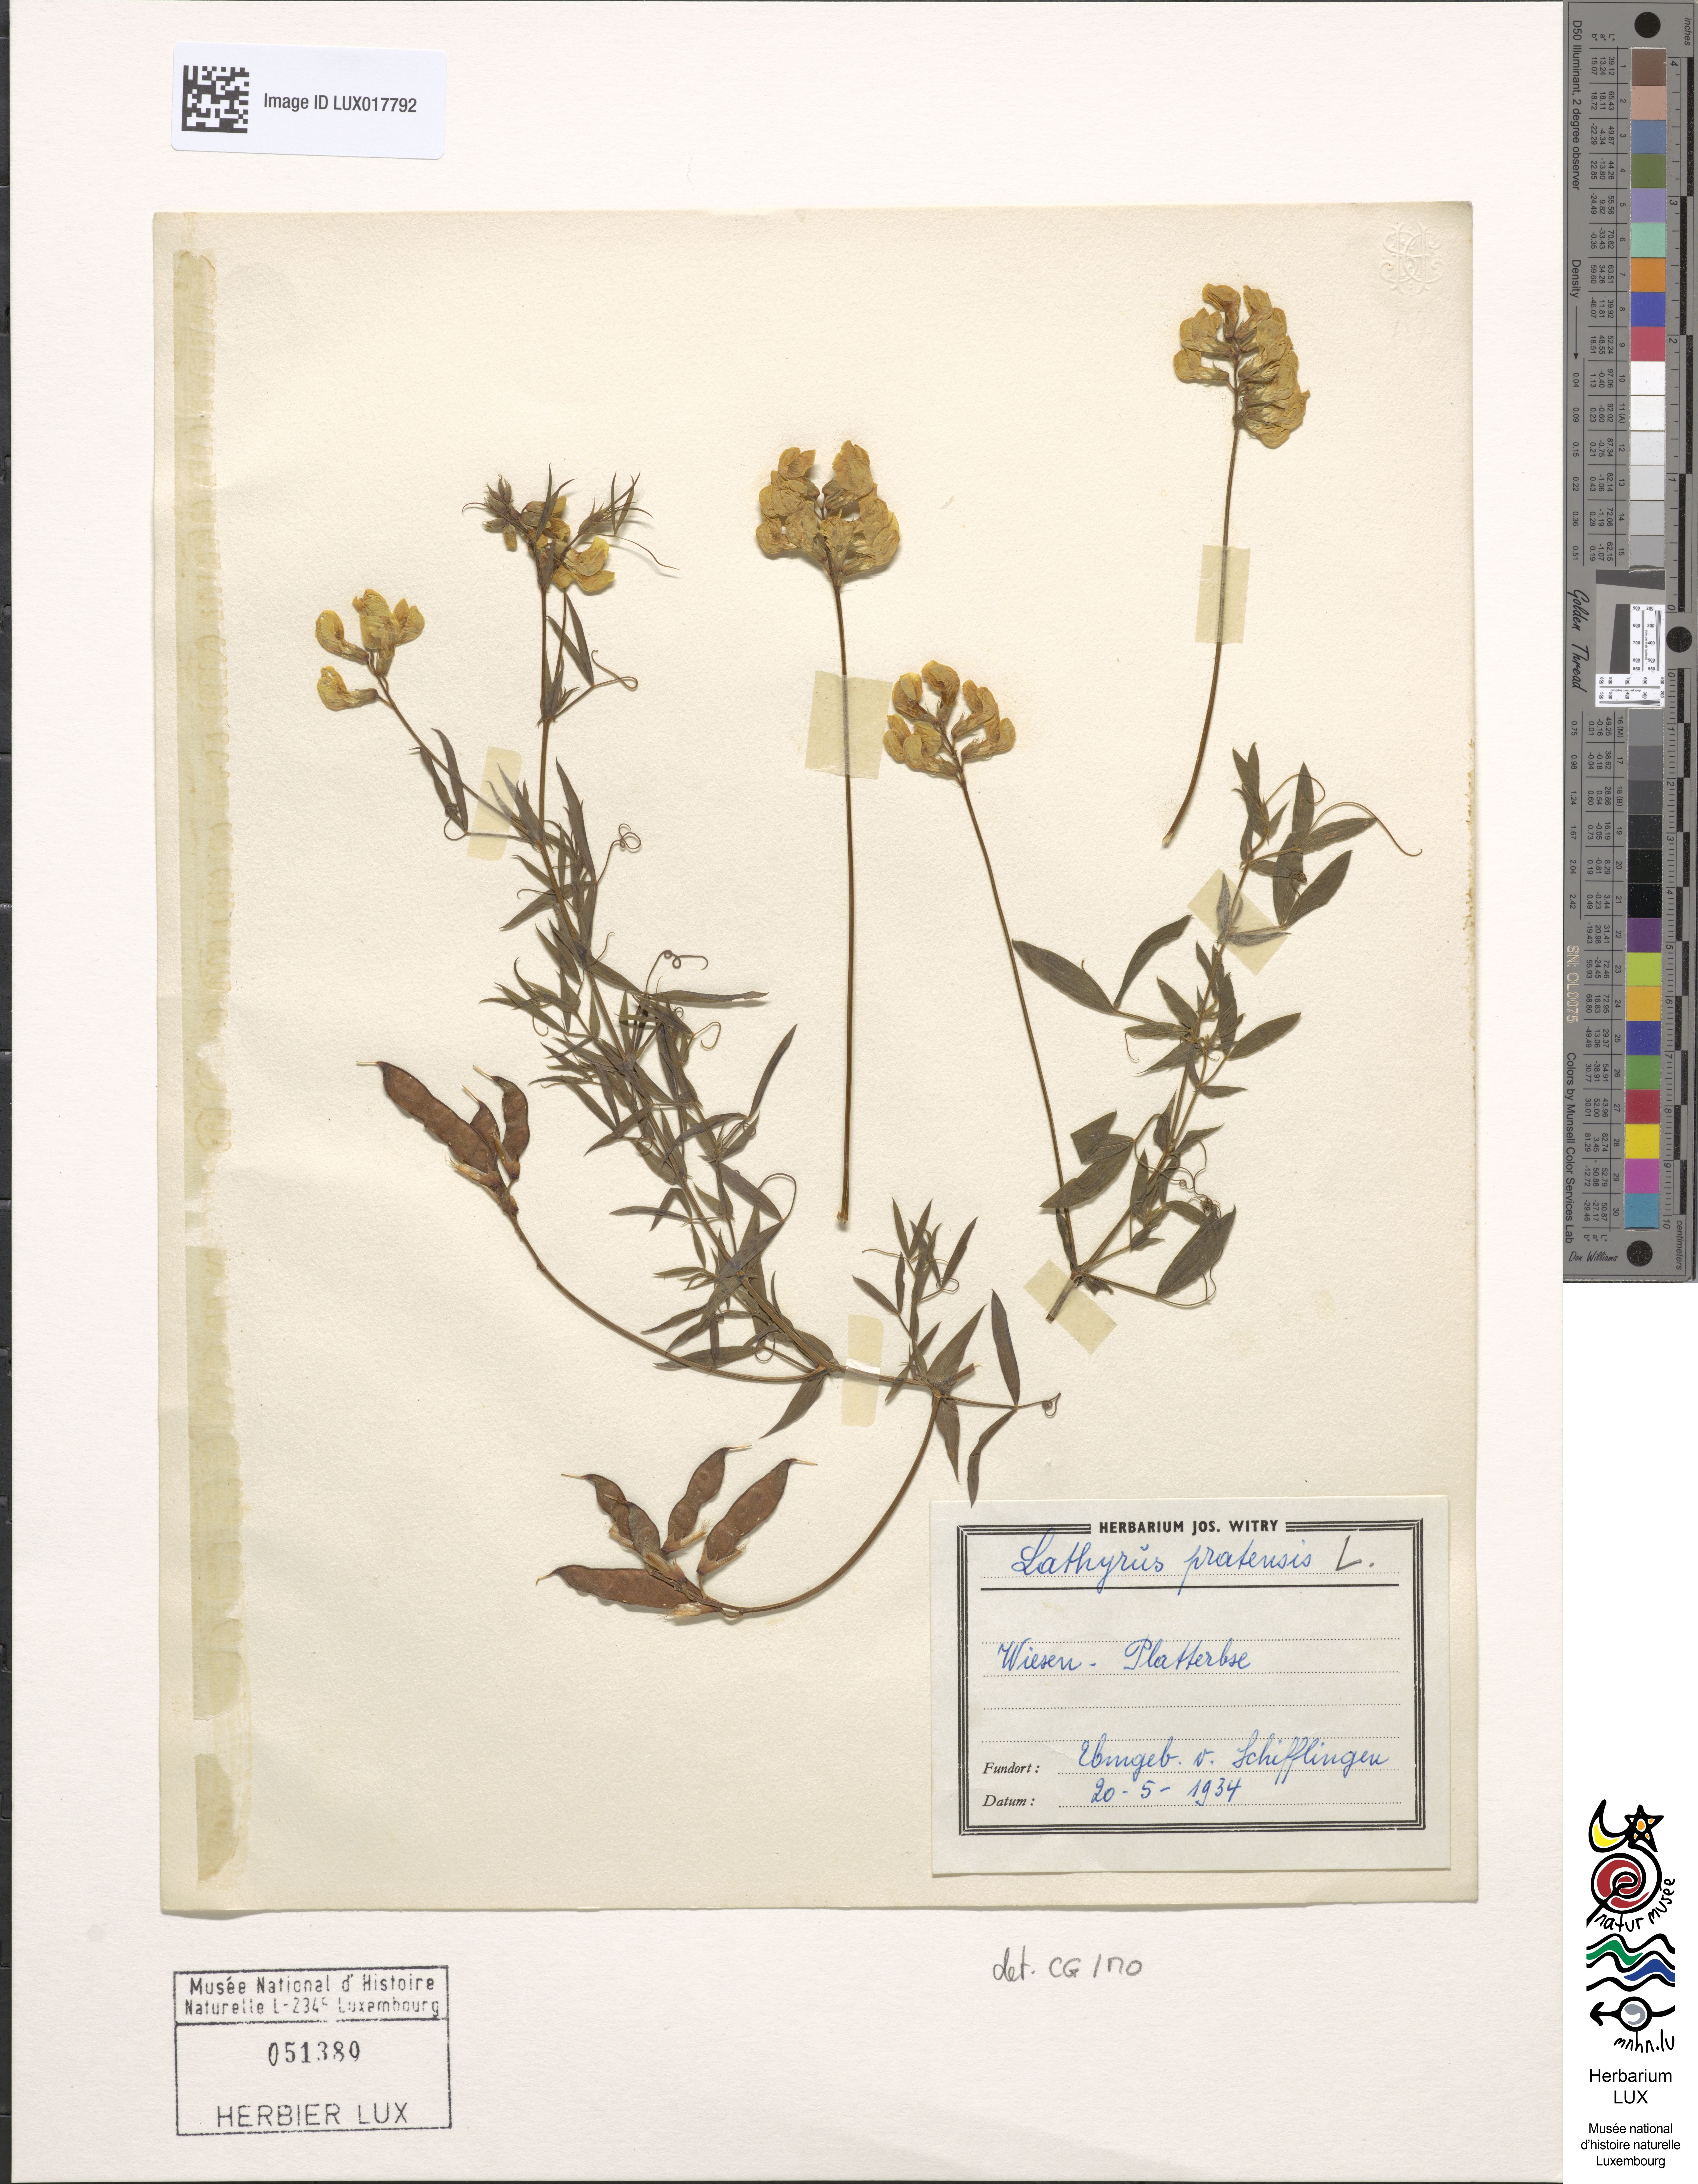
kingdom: Plantae
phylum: Tracheophyta
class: Magnoliopsida
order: Fabales
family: Fabaceae
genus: Lathyrus
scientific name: Lathyrus pratensis
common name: Meadow vetchling
